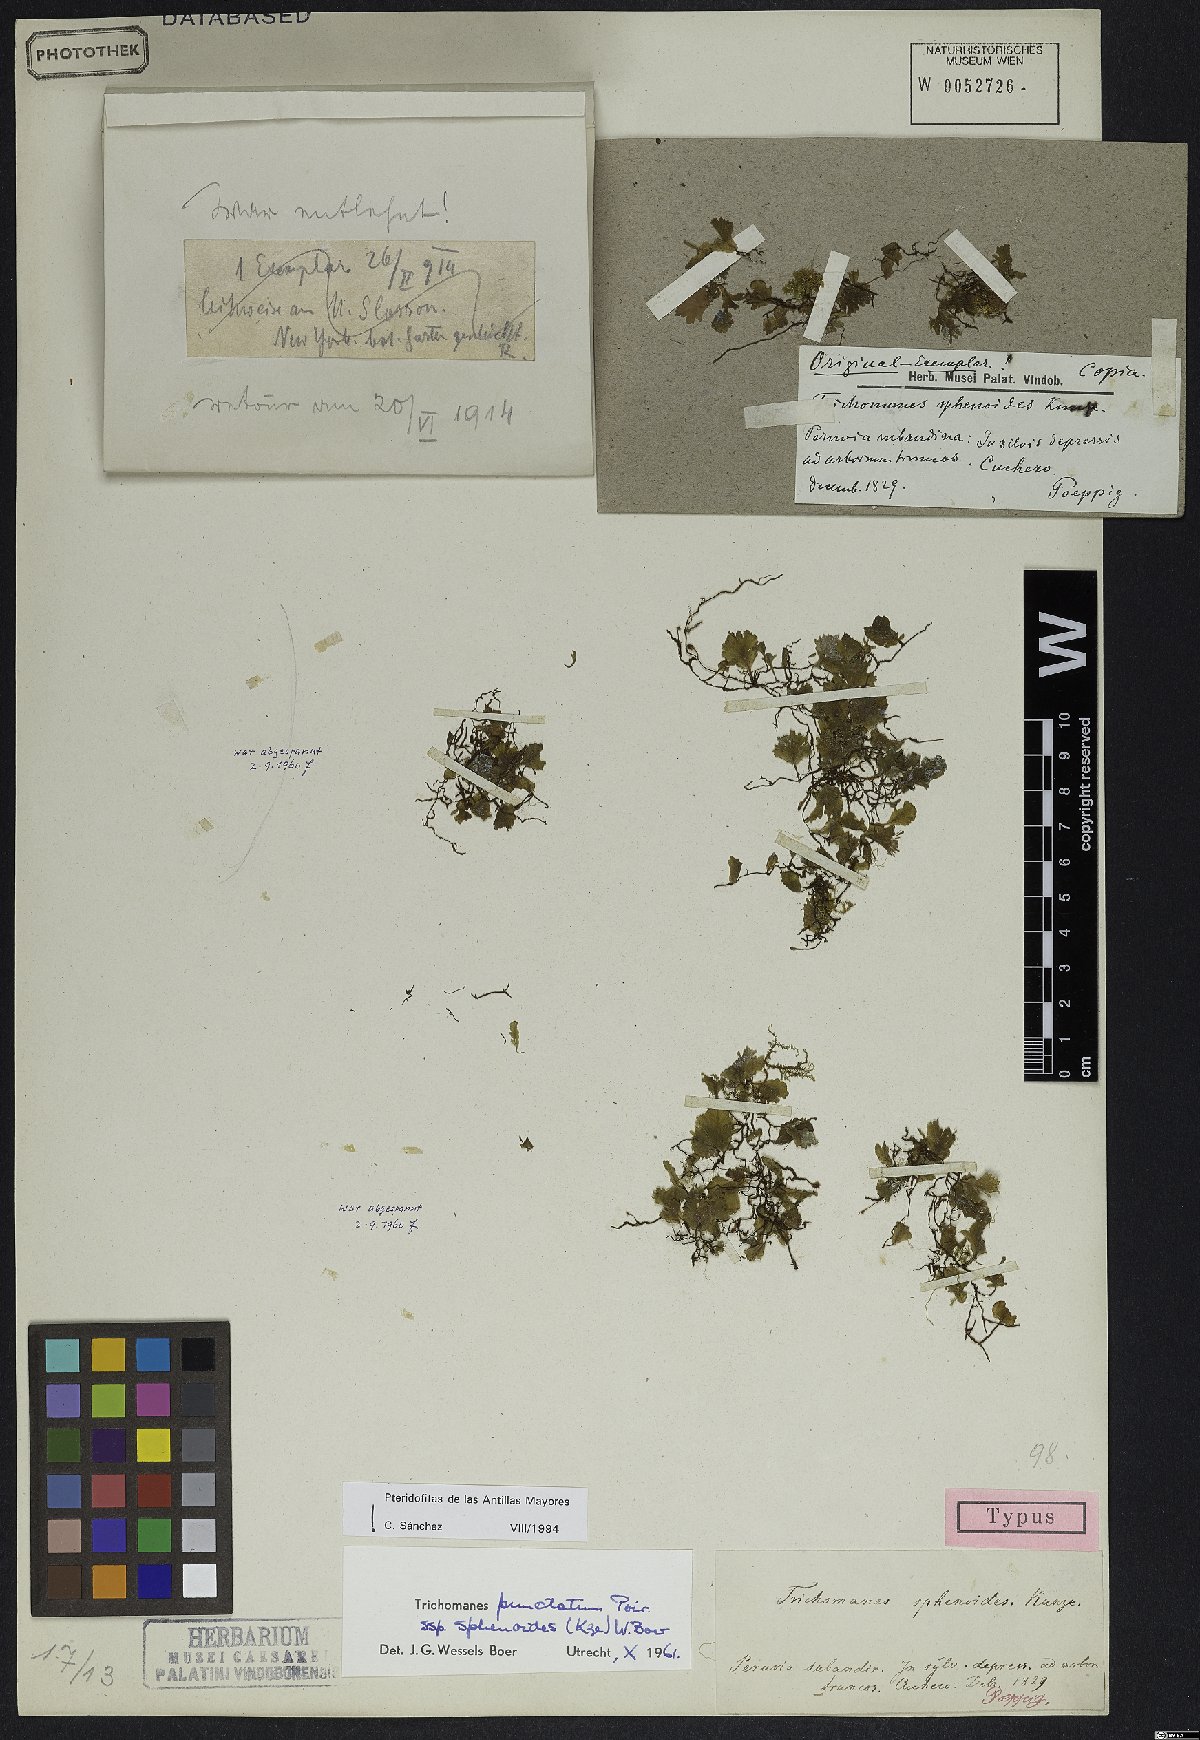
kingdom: Plantae
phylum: Tracheophyta
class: Polypodiopsida
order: Hymenophyllales
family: Hymenophyllaceae
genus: Didymoglossum
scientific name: Didymoglossum punctatum
